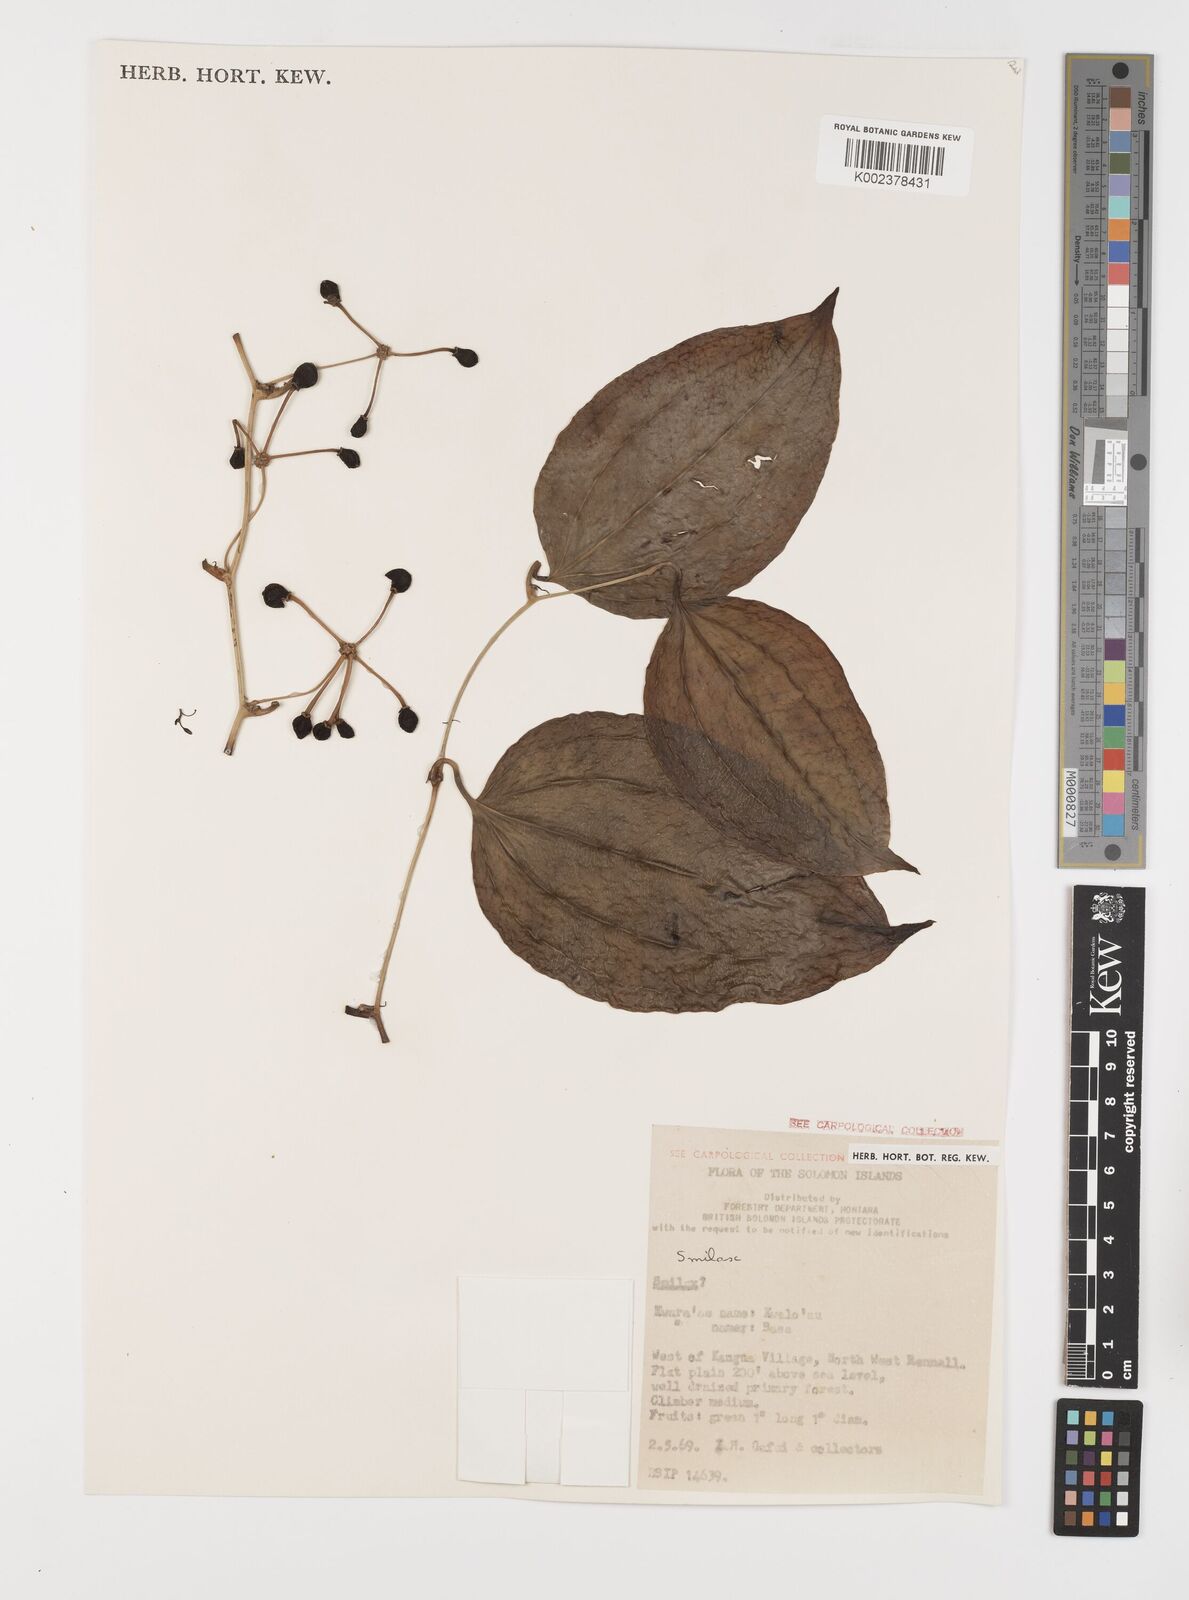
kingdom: Plantae
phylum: Tracheophyta
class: Liliopsida
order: Liliales
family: Smilacaceae
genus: Smilax
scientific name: Smilax
